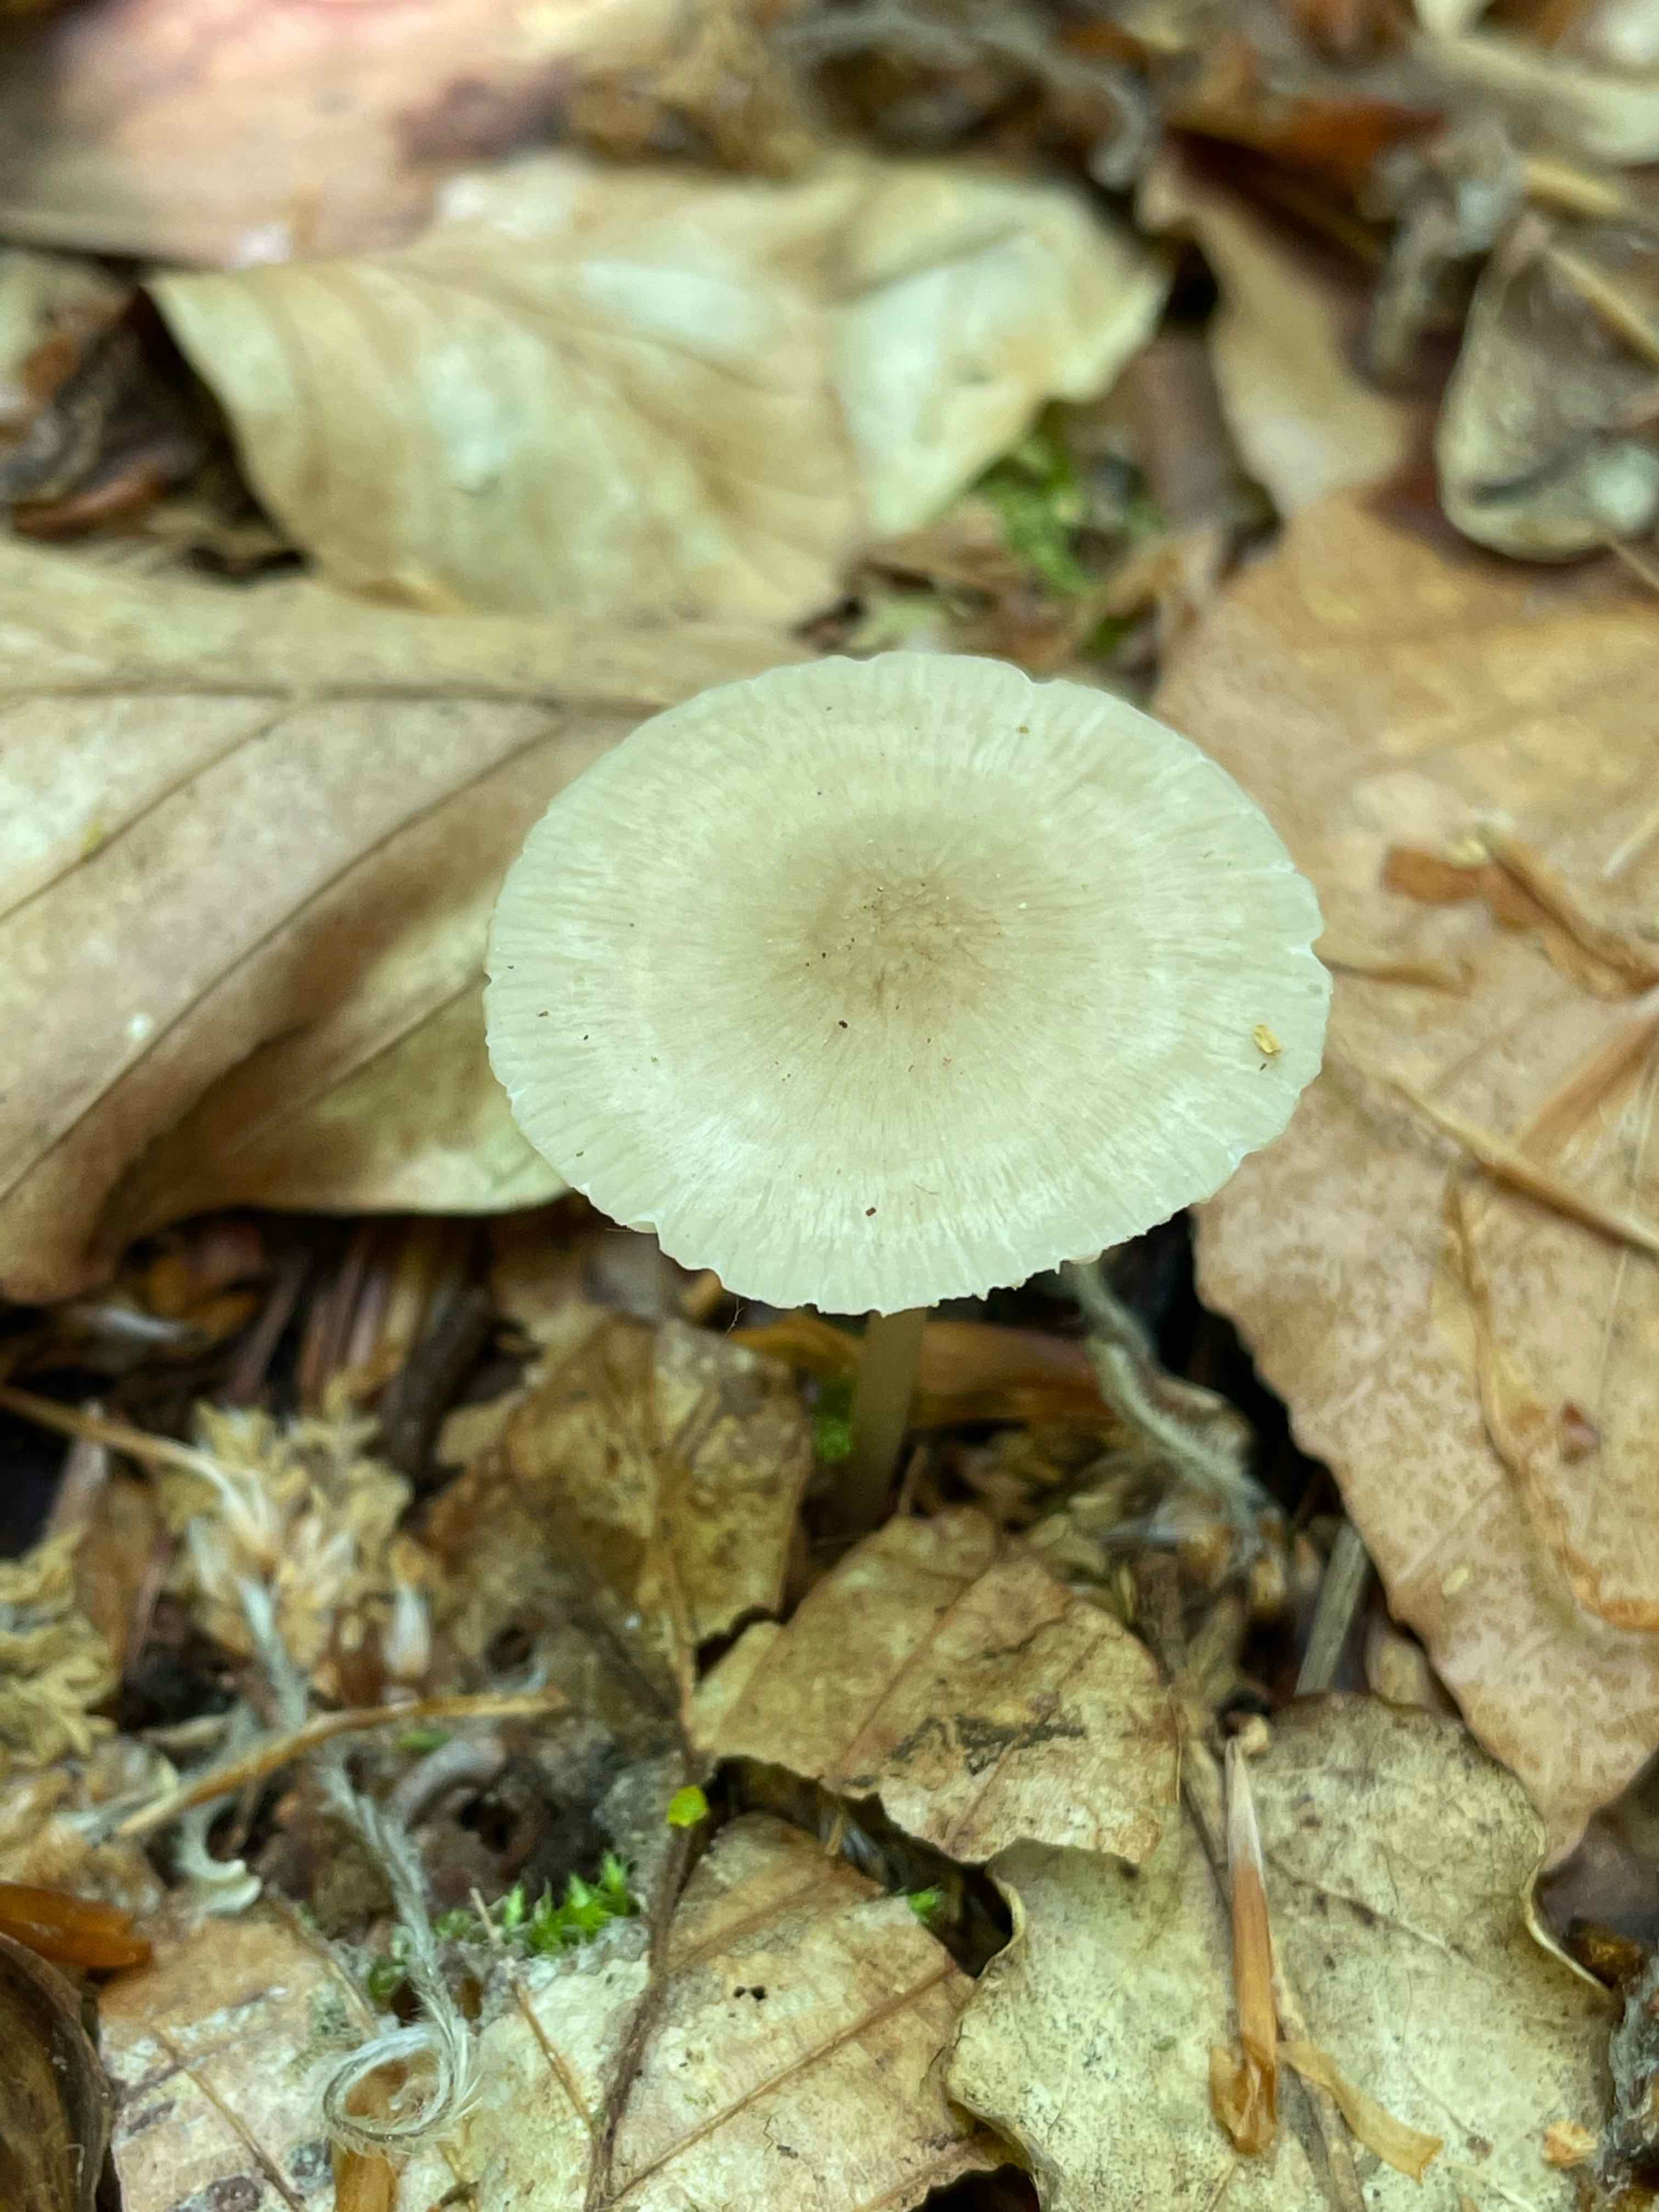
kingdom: Fungi
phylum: Basidiomycota
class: Agaricomycetes
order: Agaricales
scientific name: Agaricales
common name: champignonordenen
